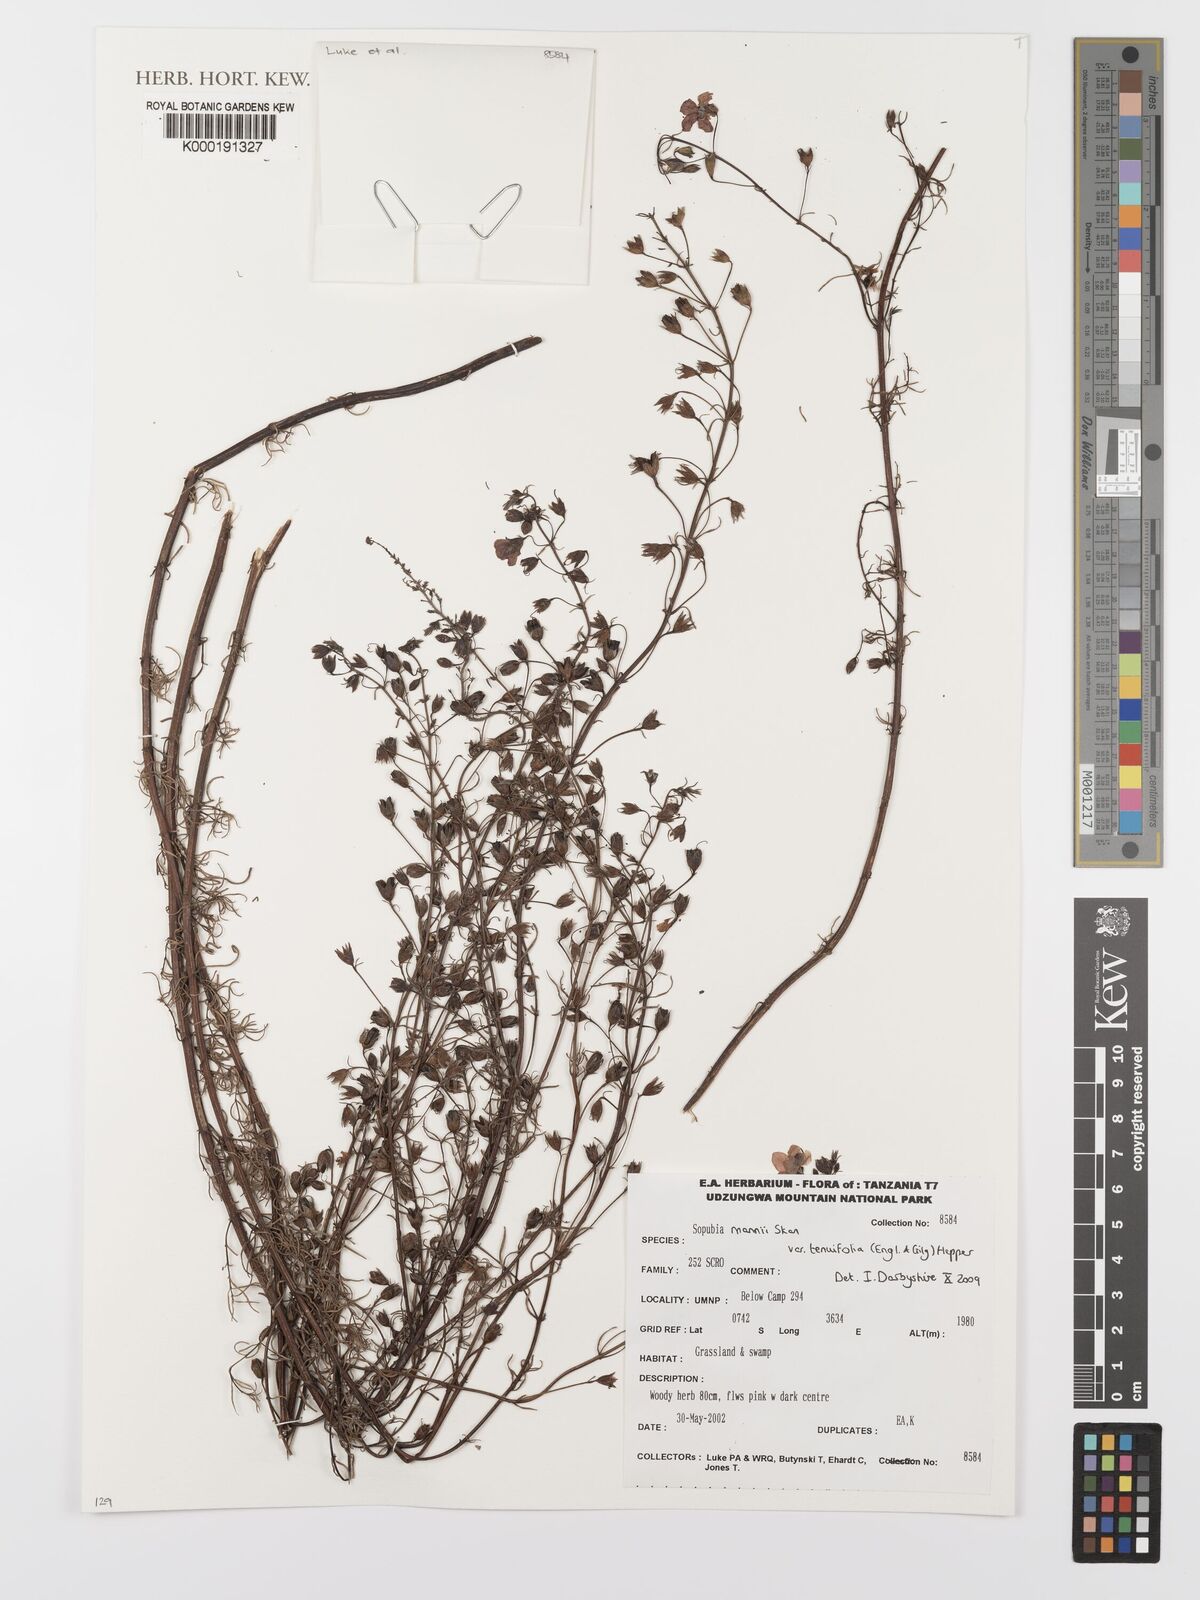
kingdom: Plantae
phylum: Tracheophyta
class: Magnoliopsida
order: Lamiales
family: Orobanchaceae
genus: Sopubia
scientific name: Sopubia mannii
